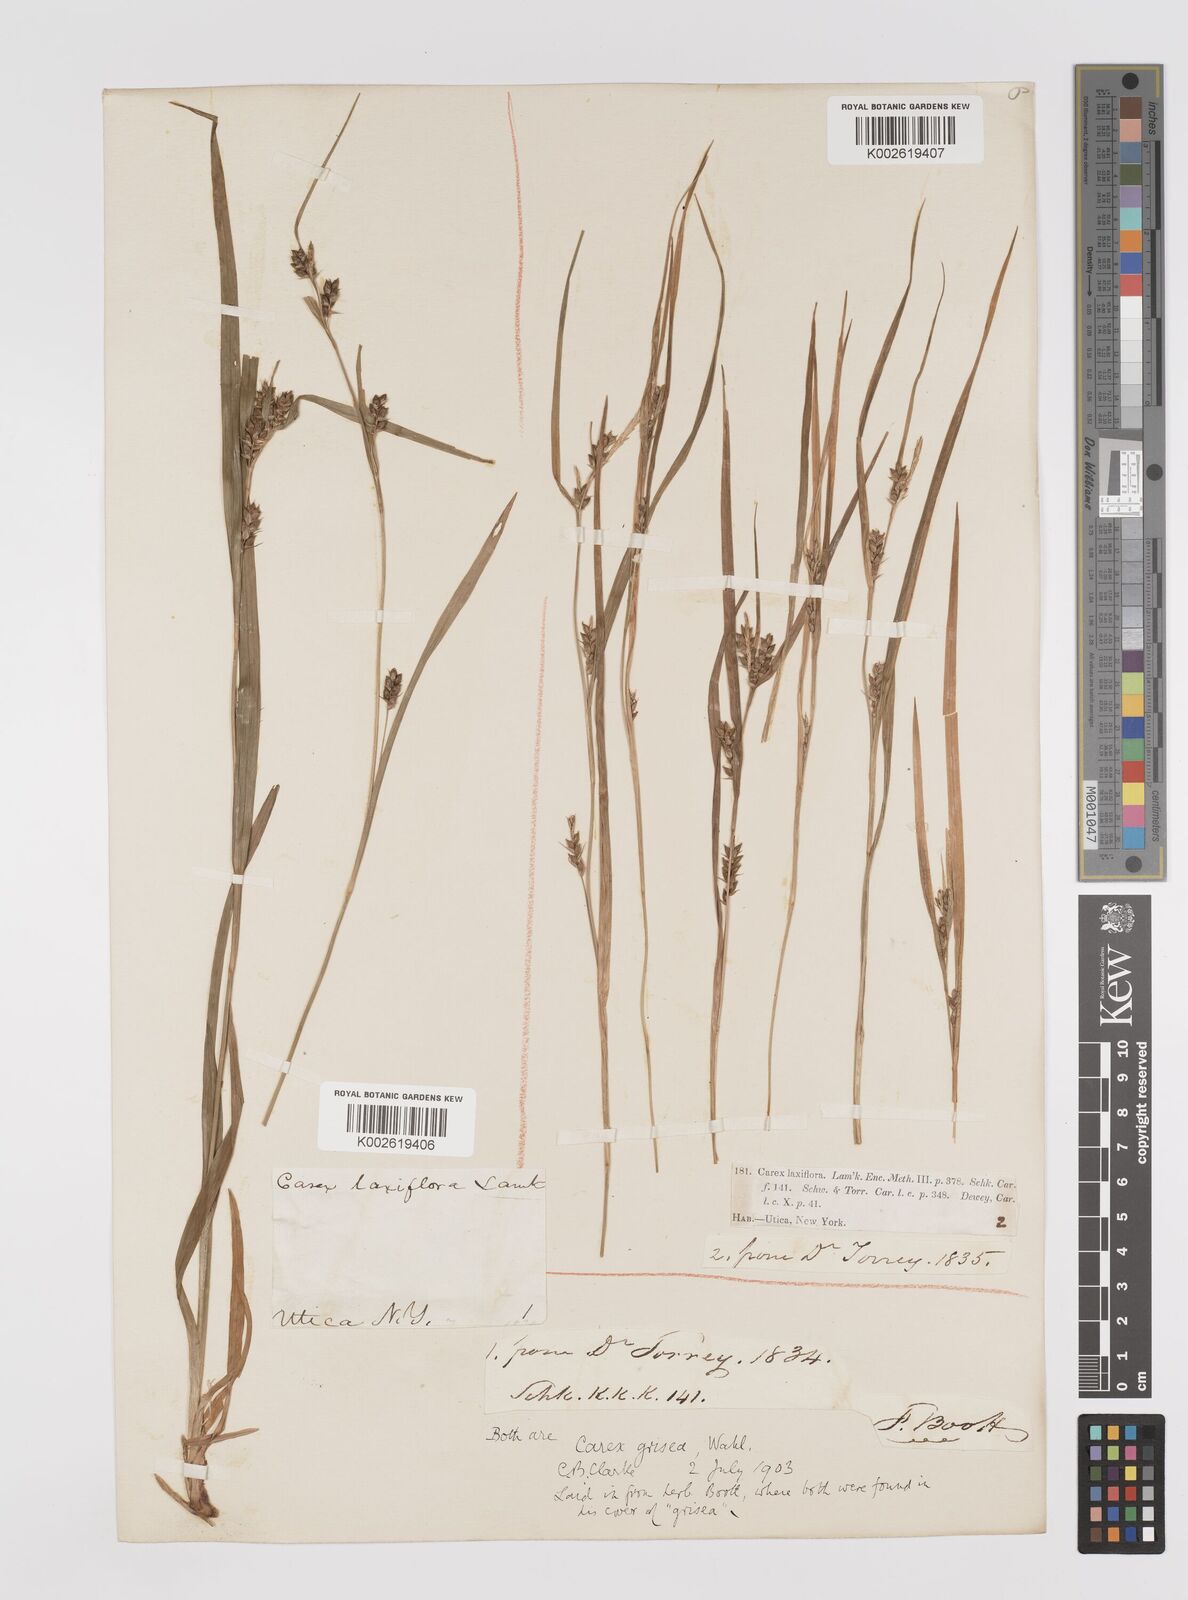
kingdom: Plantae
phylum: Tracheophyta
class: Liliopsida
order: Poales
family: Cyperaceae
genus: Carex
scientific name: Carex grisea
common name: Eastern narrow-leaved sedge
